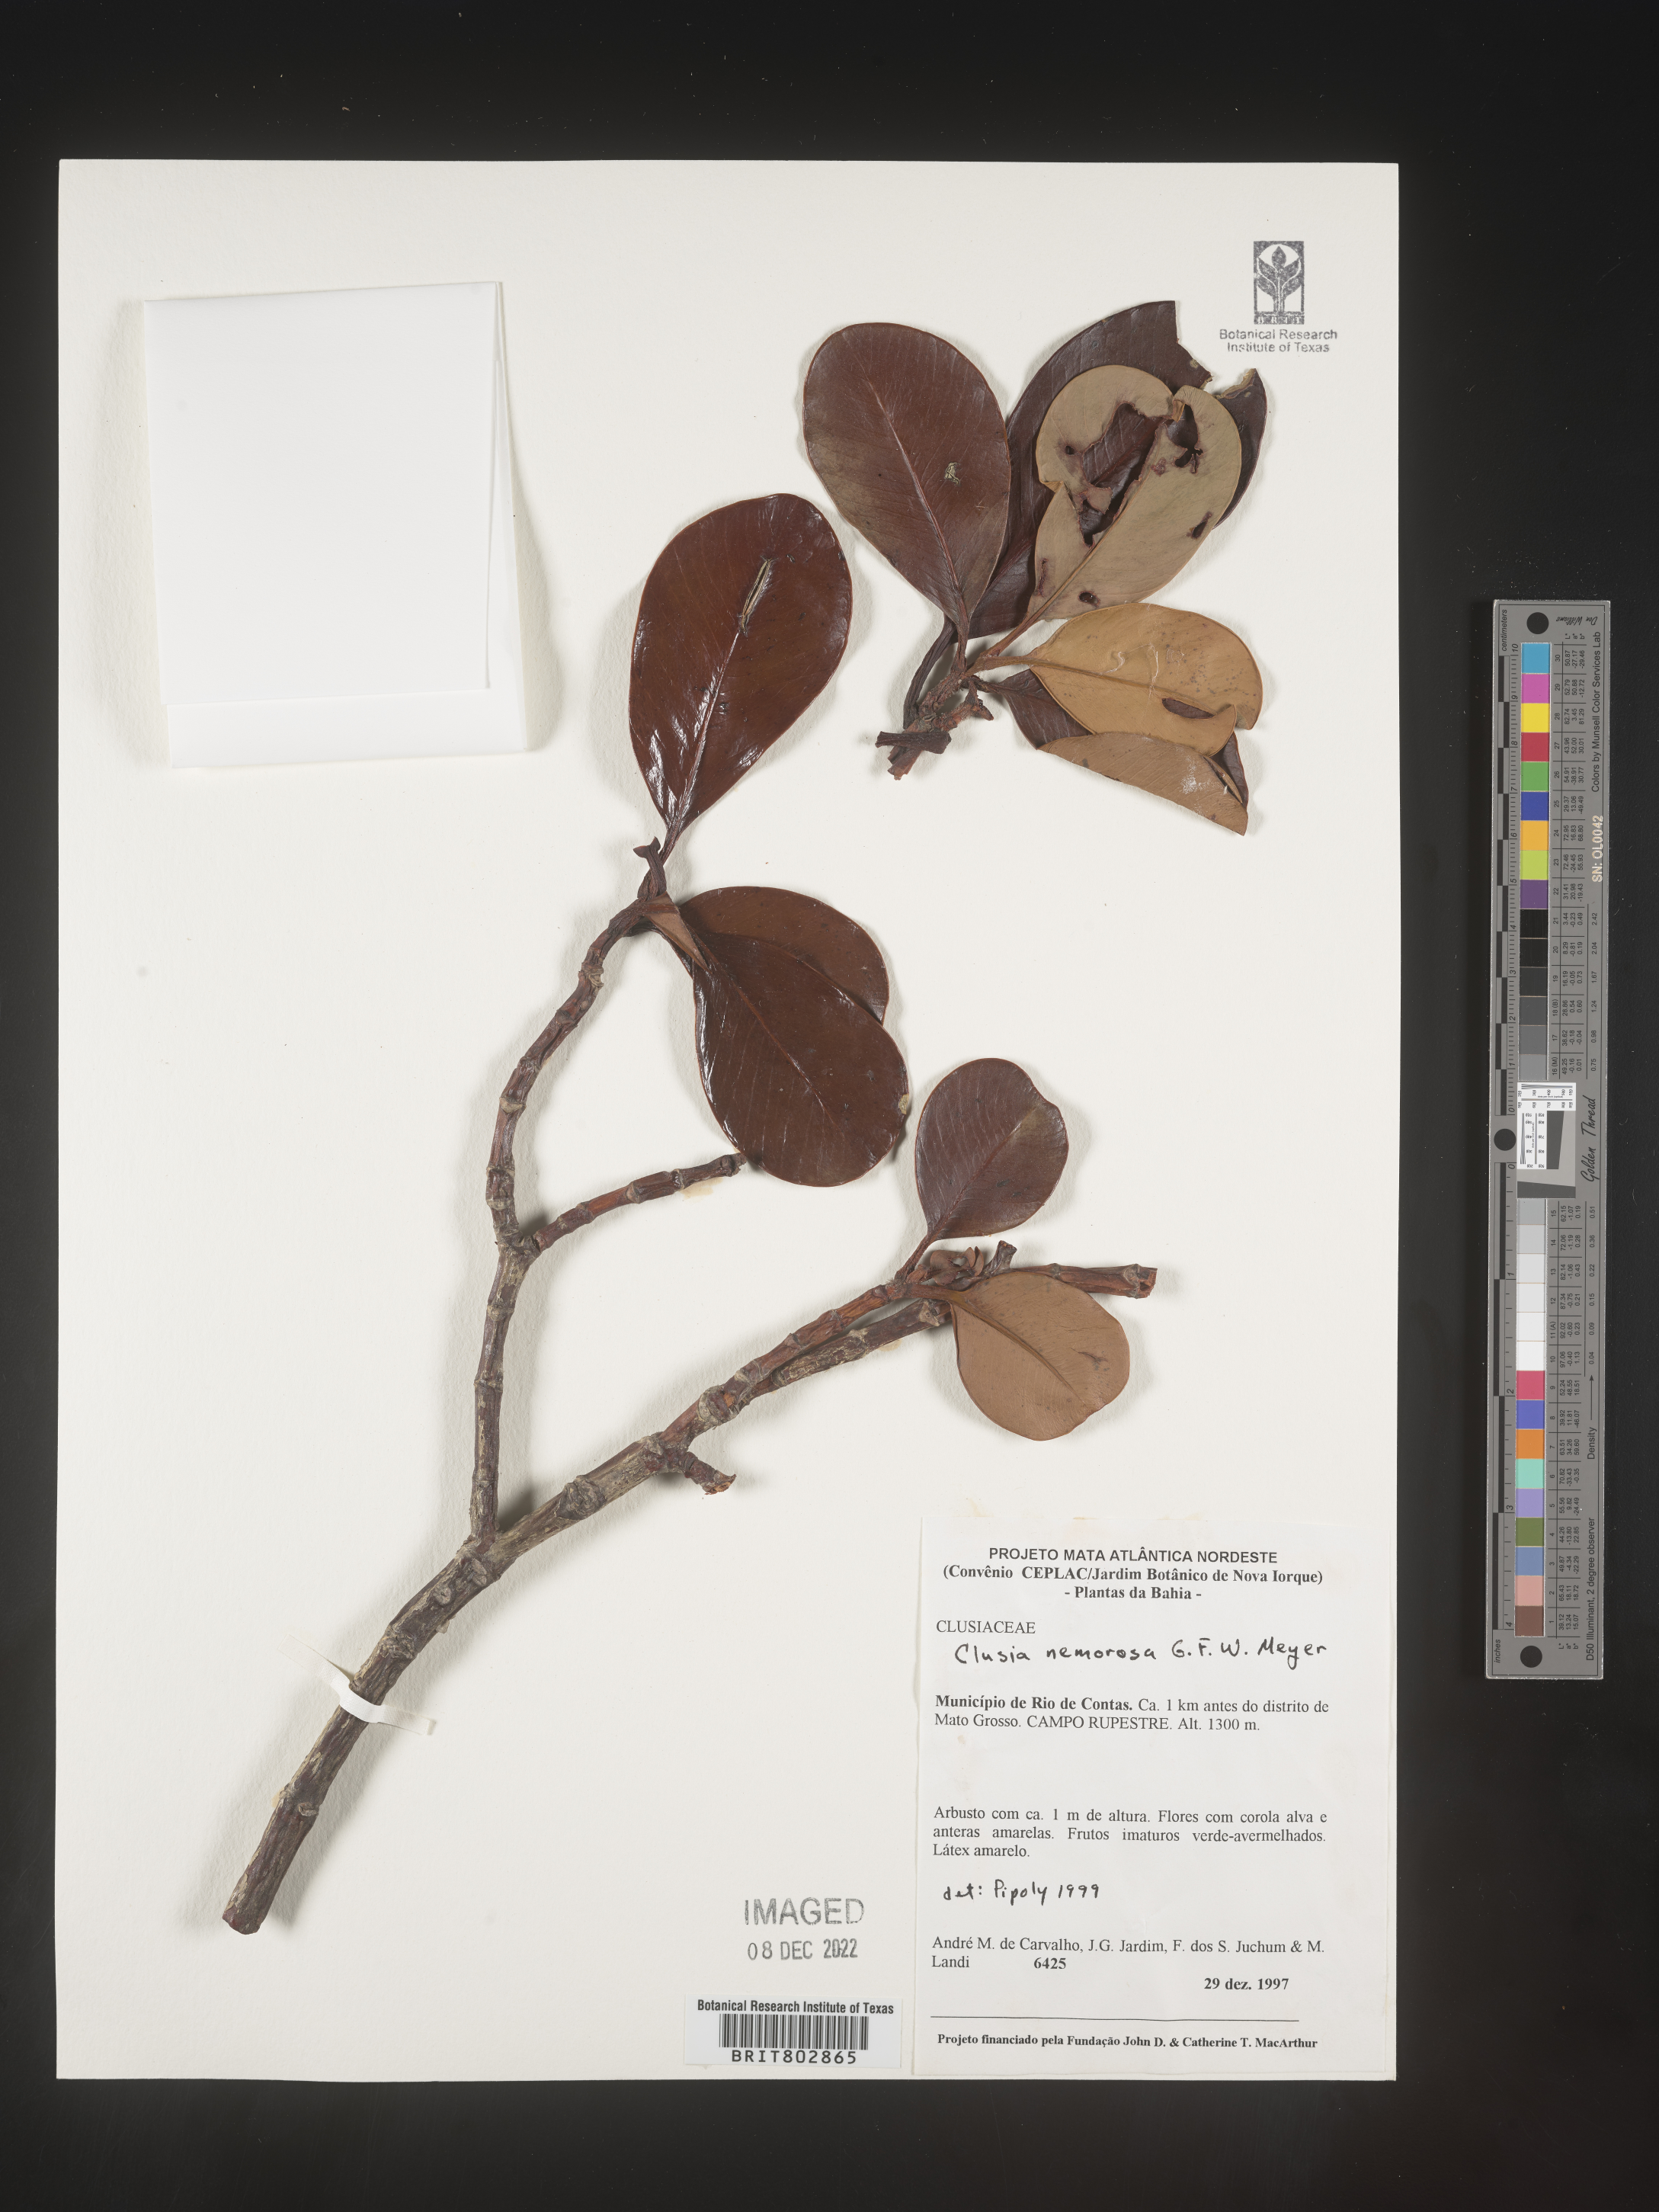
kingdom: Plantae
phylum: Tracheophyta
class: Magnoliopsida
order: Malpighiales
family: Clusiaceae
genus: Clusia
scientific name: Clusia
